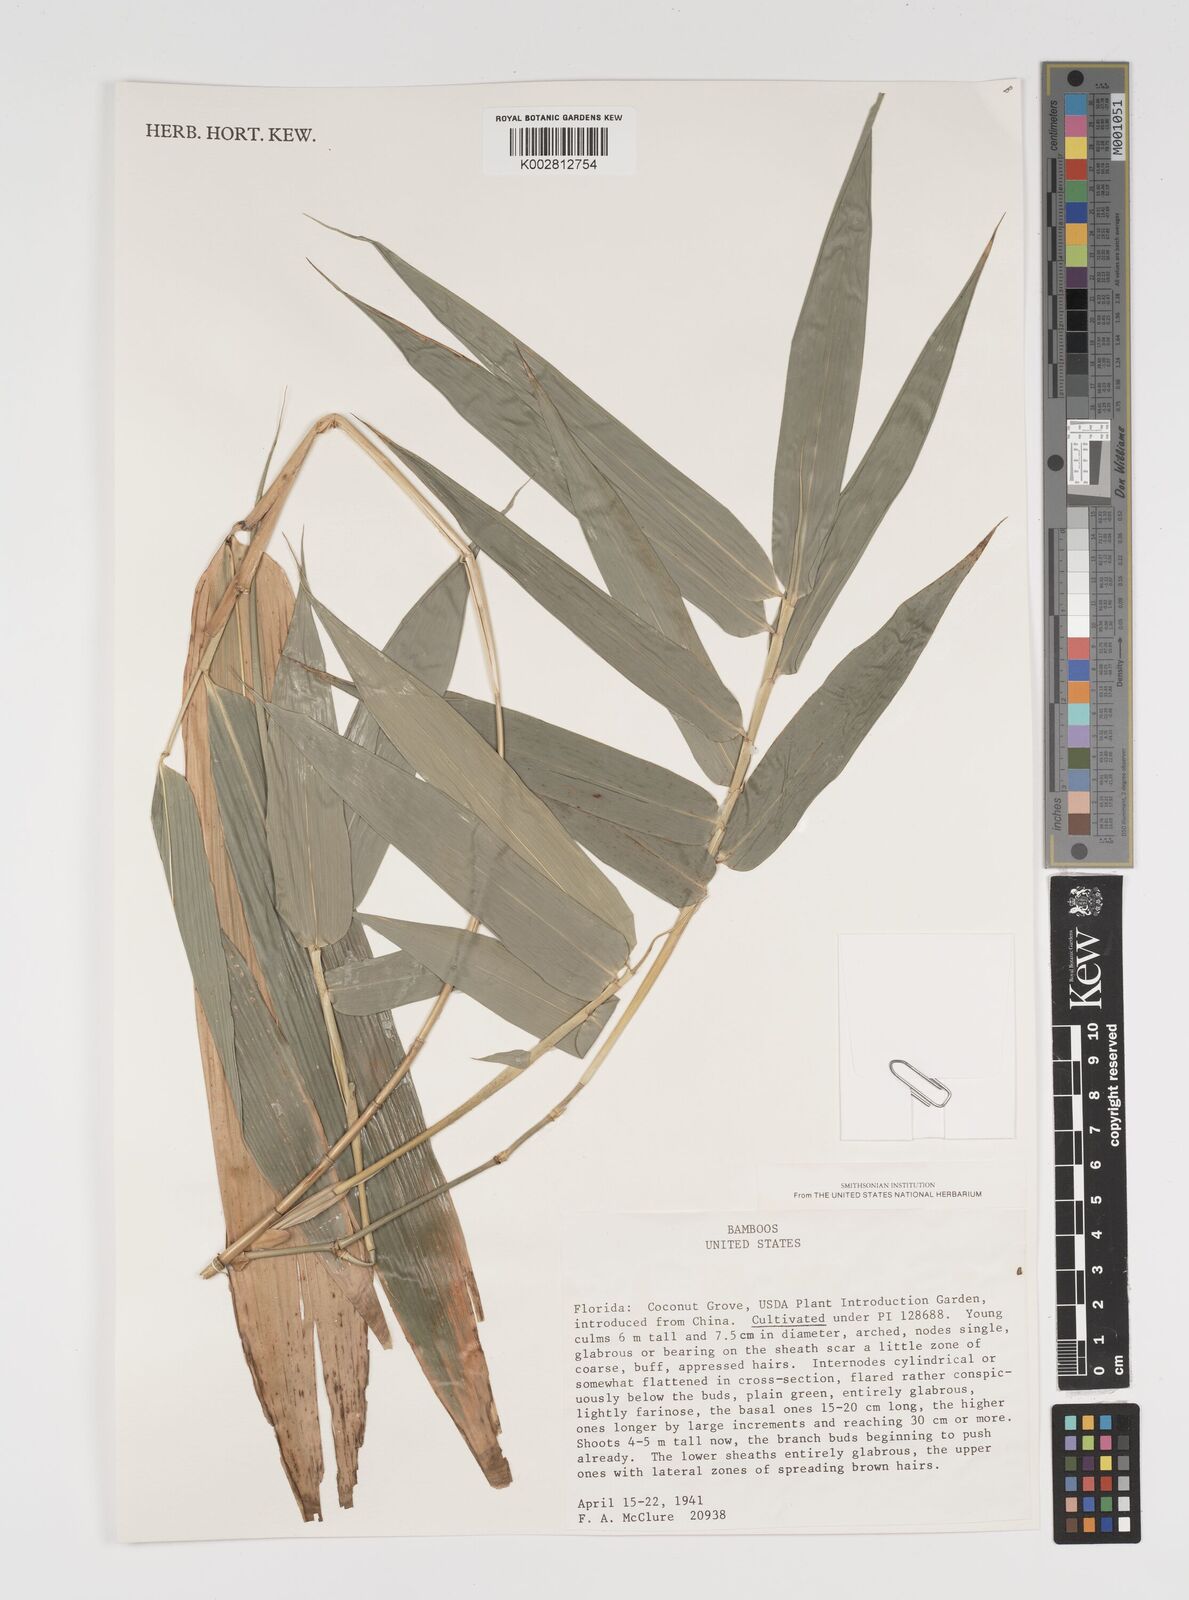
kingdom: Plantae
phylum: Tracheophyta
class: Liliopsida
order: Poales
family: Poaceae
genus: Arundinaria
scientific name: Arundinaria
